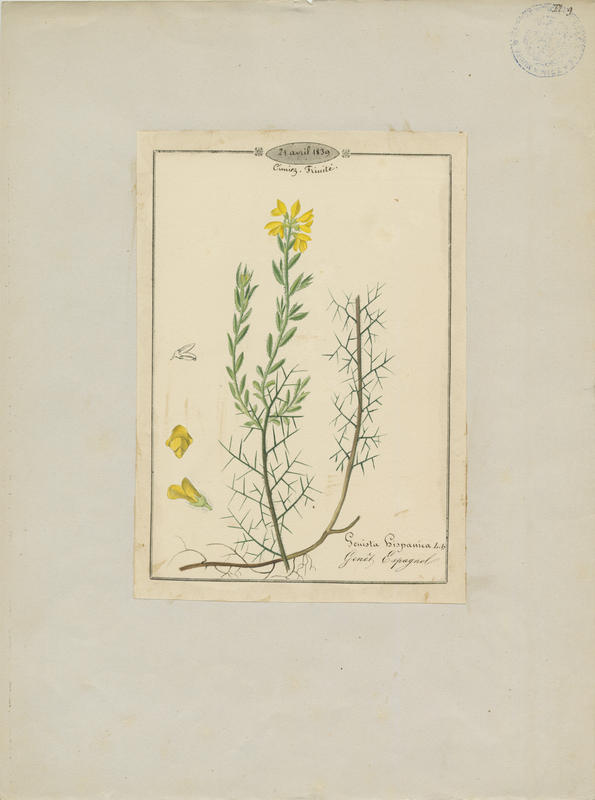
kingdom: Plantae
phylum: Tracheophyta
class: Magnoliopsida
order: Fabales
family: Fabaceae
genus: Genista
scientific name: Genista hispanica
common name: Spanish gorse
